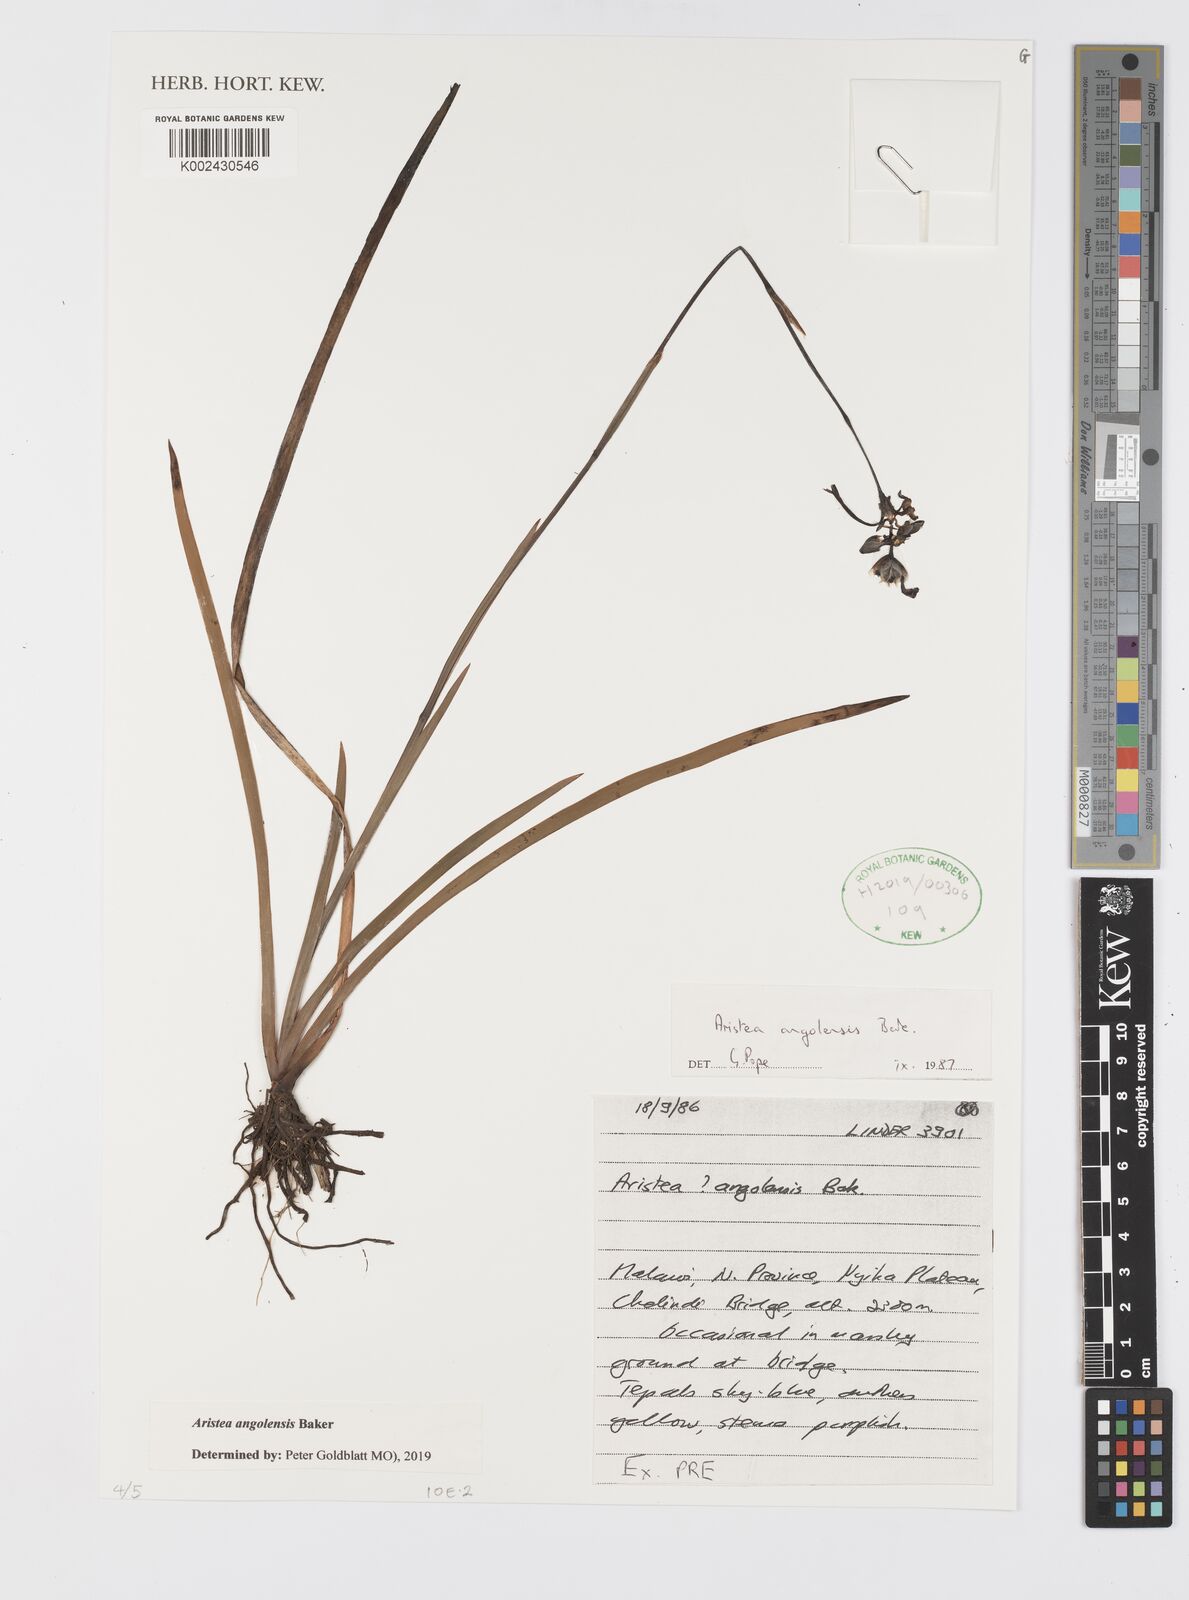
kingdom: Plantae
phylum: Tracheophyta
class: Liliopsida
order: Asparagales
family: Iridaceae
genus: Aristea
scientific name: Aristea angolensis
